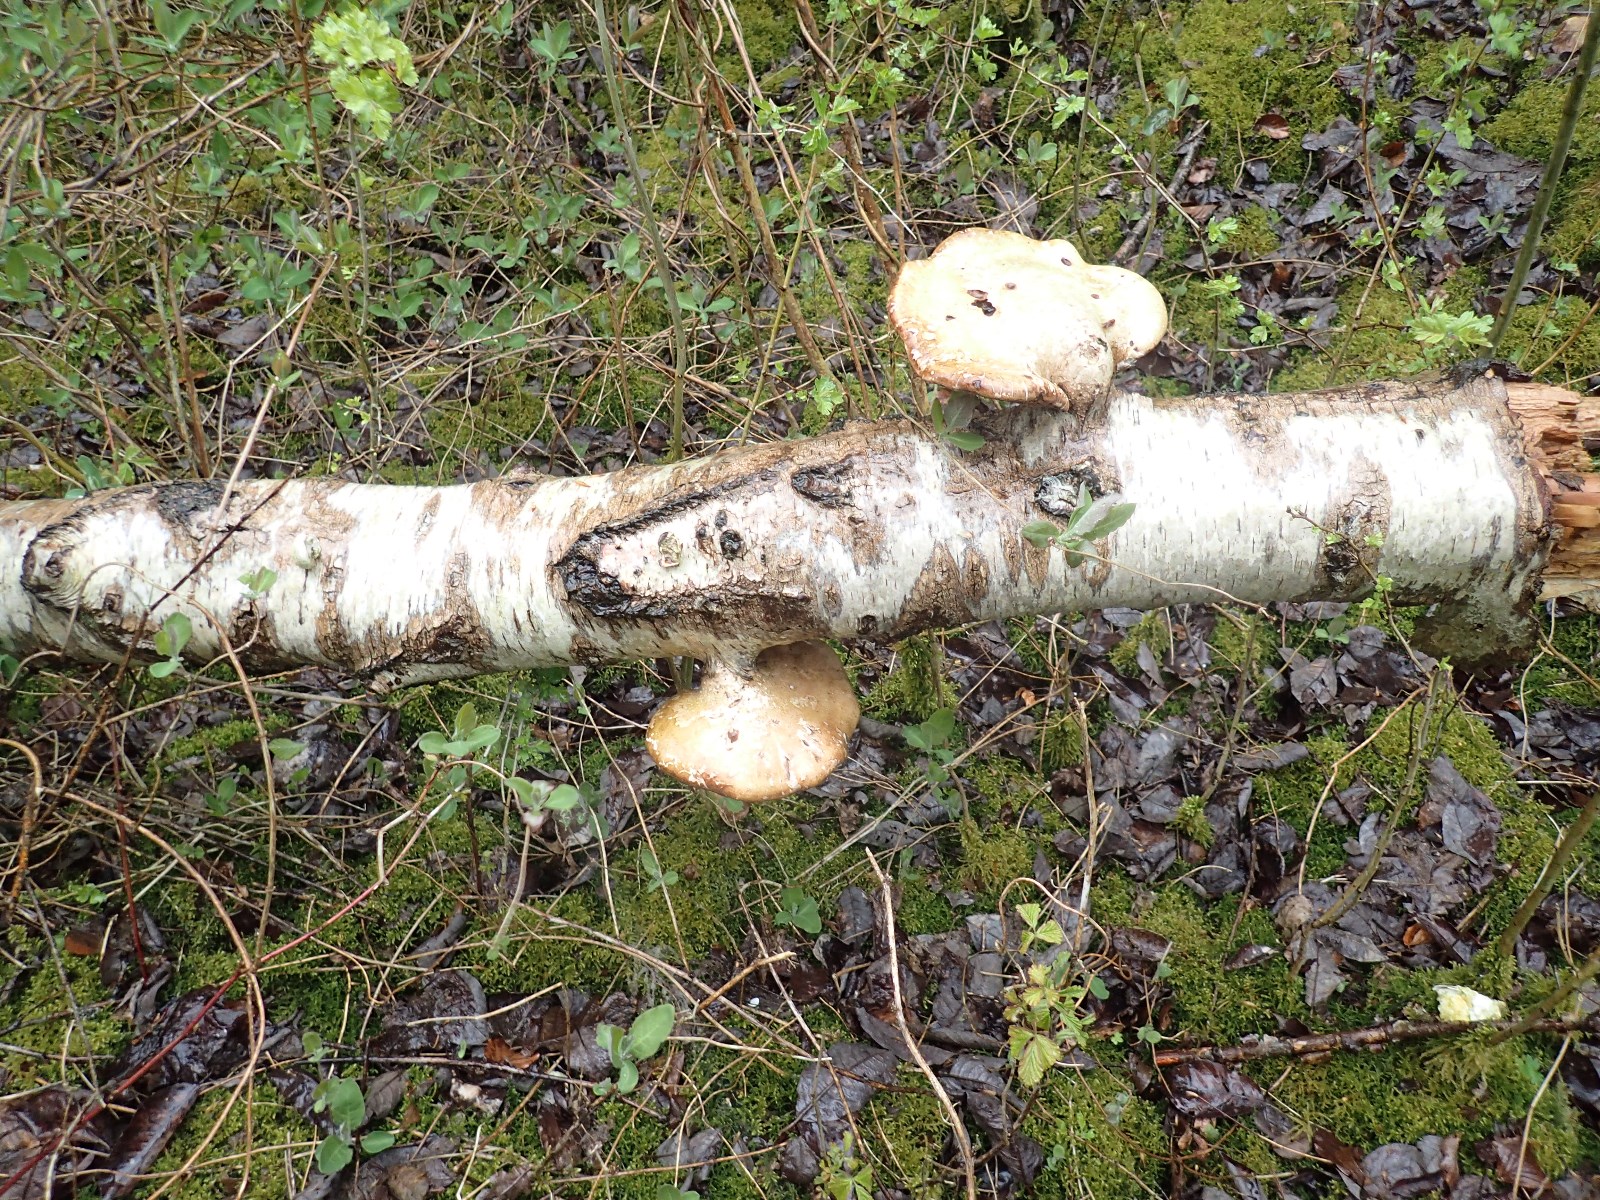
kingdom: Fungi
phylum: Basidiomycota
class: Agaricomycetes
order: Polyporales
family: Fomitopsidaceae
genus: Fomitopsis
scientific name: Fomitopsis betulina
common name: birkeporesvamp
